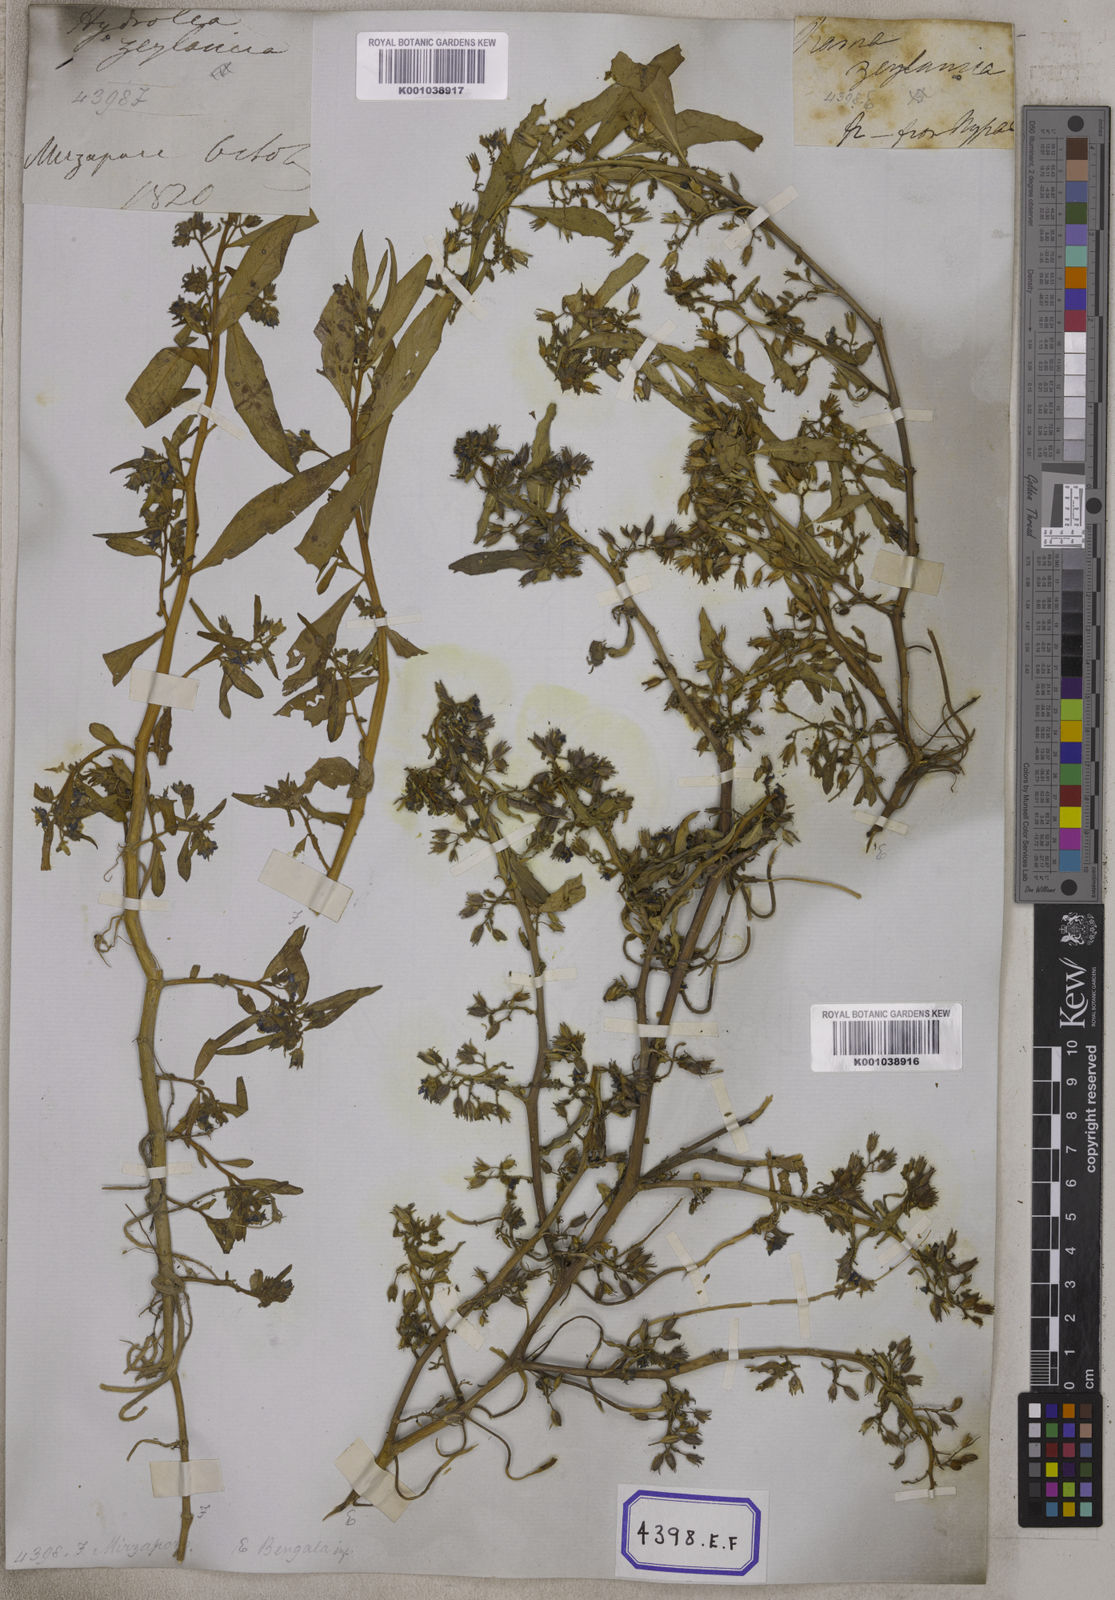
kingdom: Plantae
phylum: Tracheophyta
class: Magnoliopsida
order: Solanales
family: Hydroleaceae
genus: Hydrolea
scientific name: Hydrolea zeylanica
